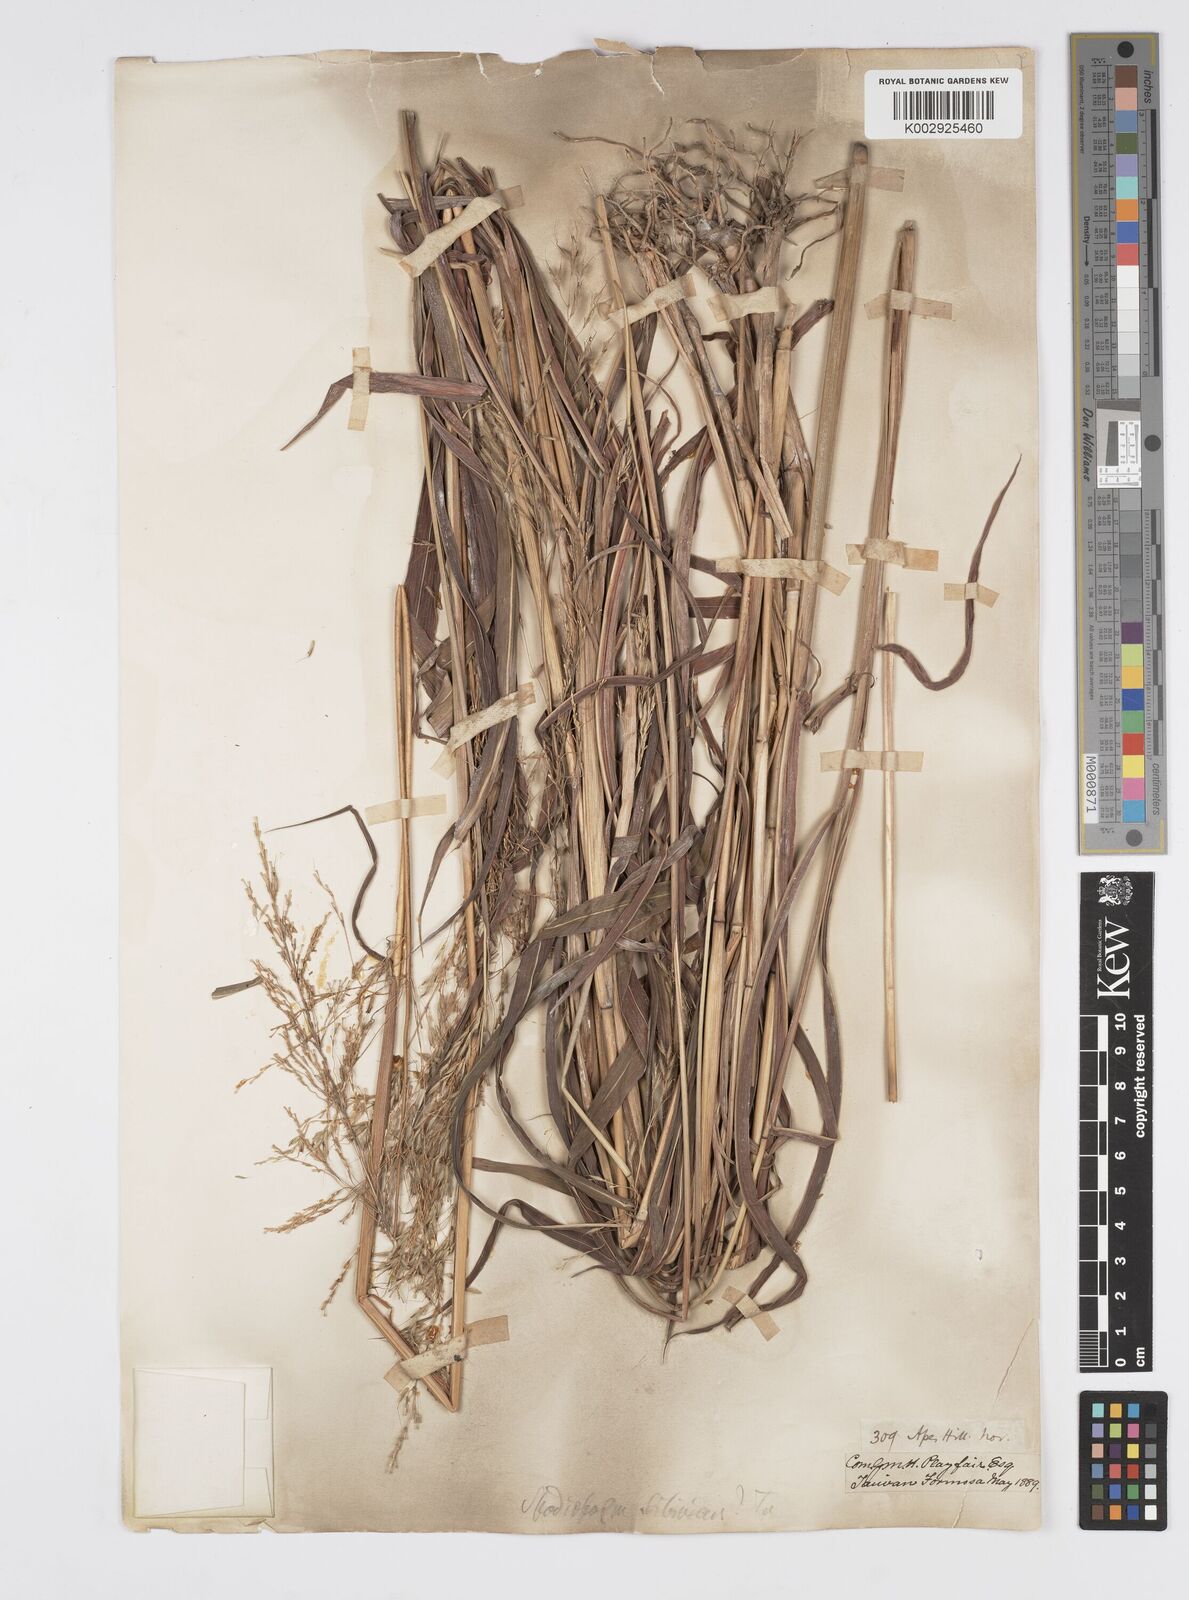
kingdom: Plantae
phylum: Tracheophyta
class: Liliopsida
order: Poales
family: Poaceae
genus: Spodiopogon
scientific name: Spodiopogon cotulifer
